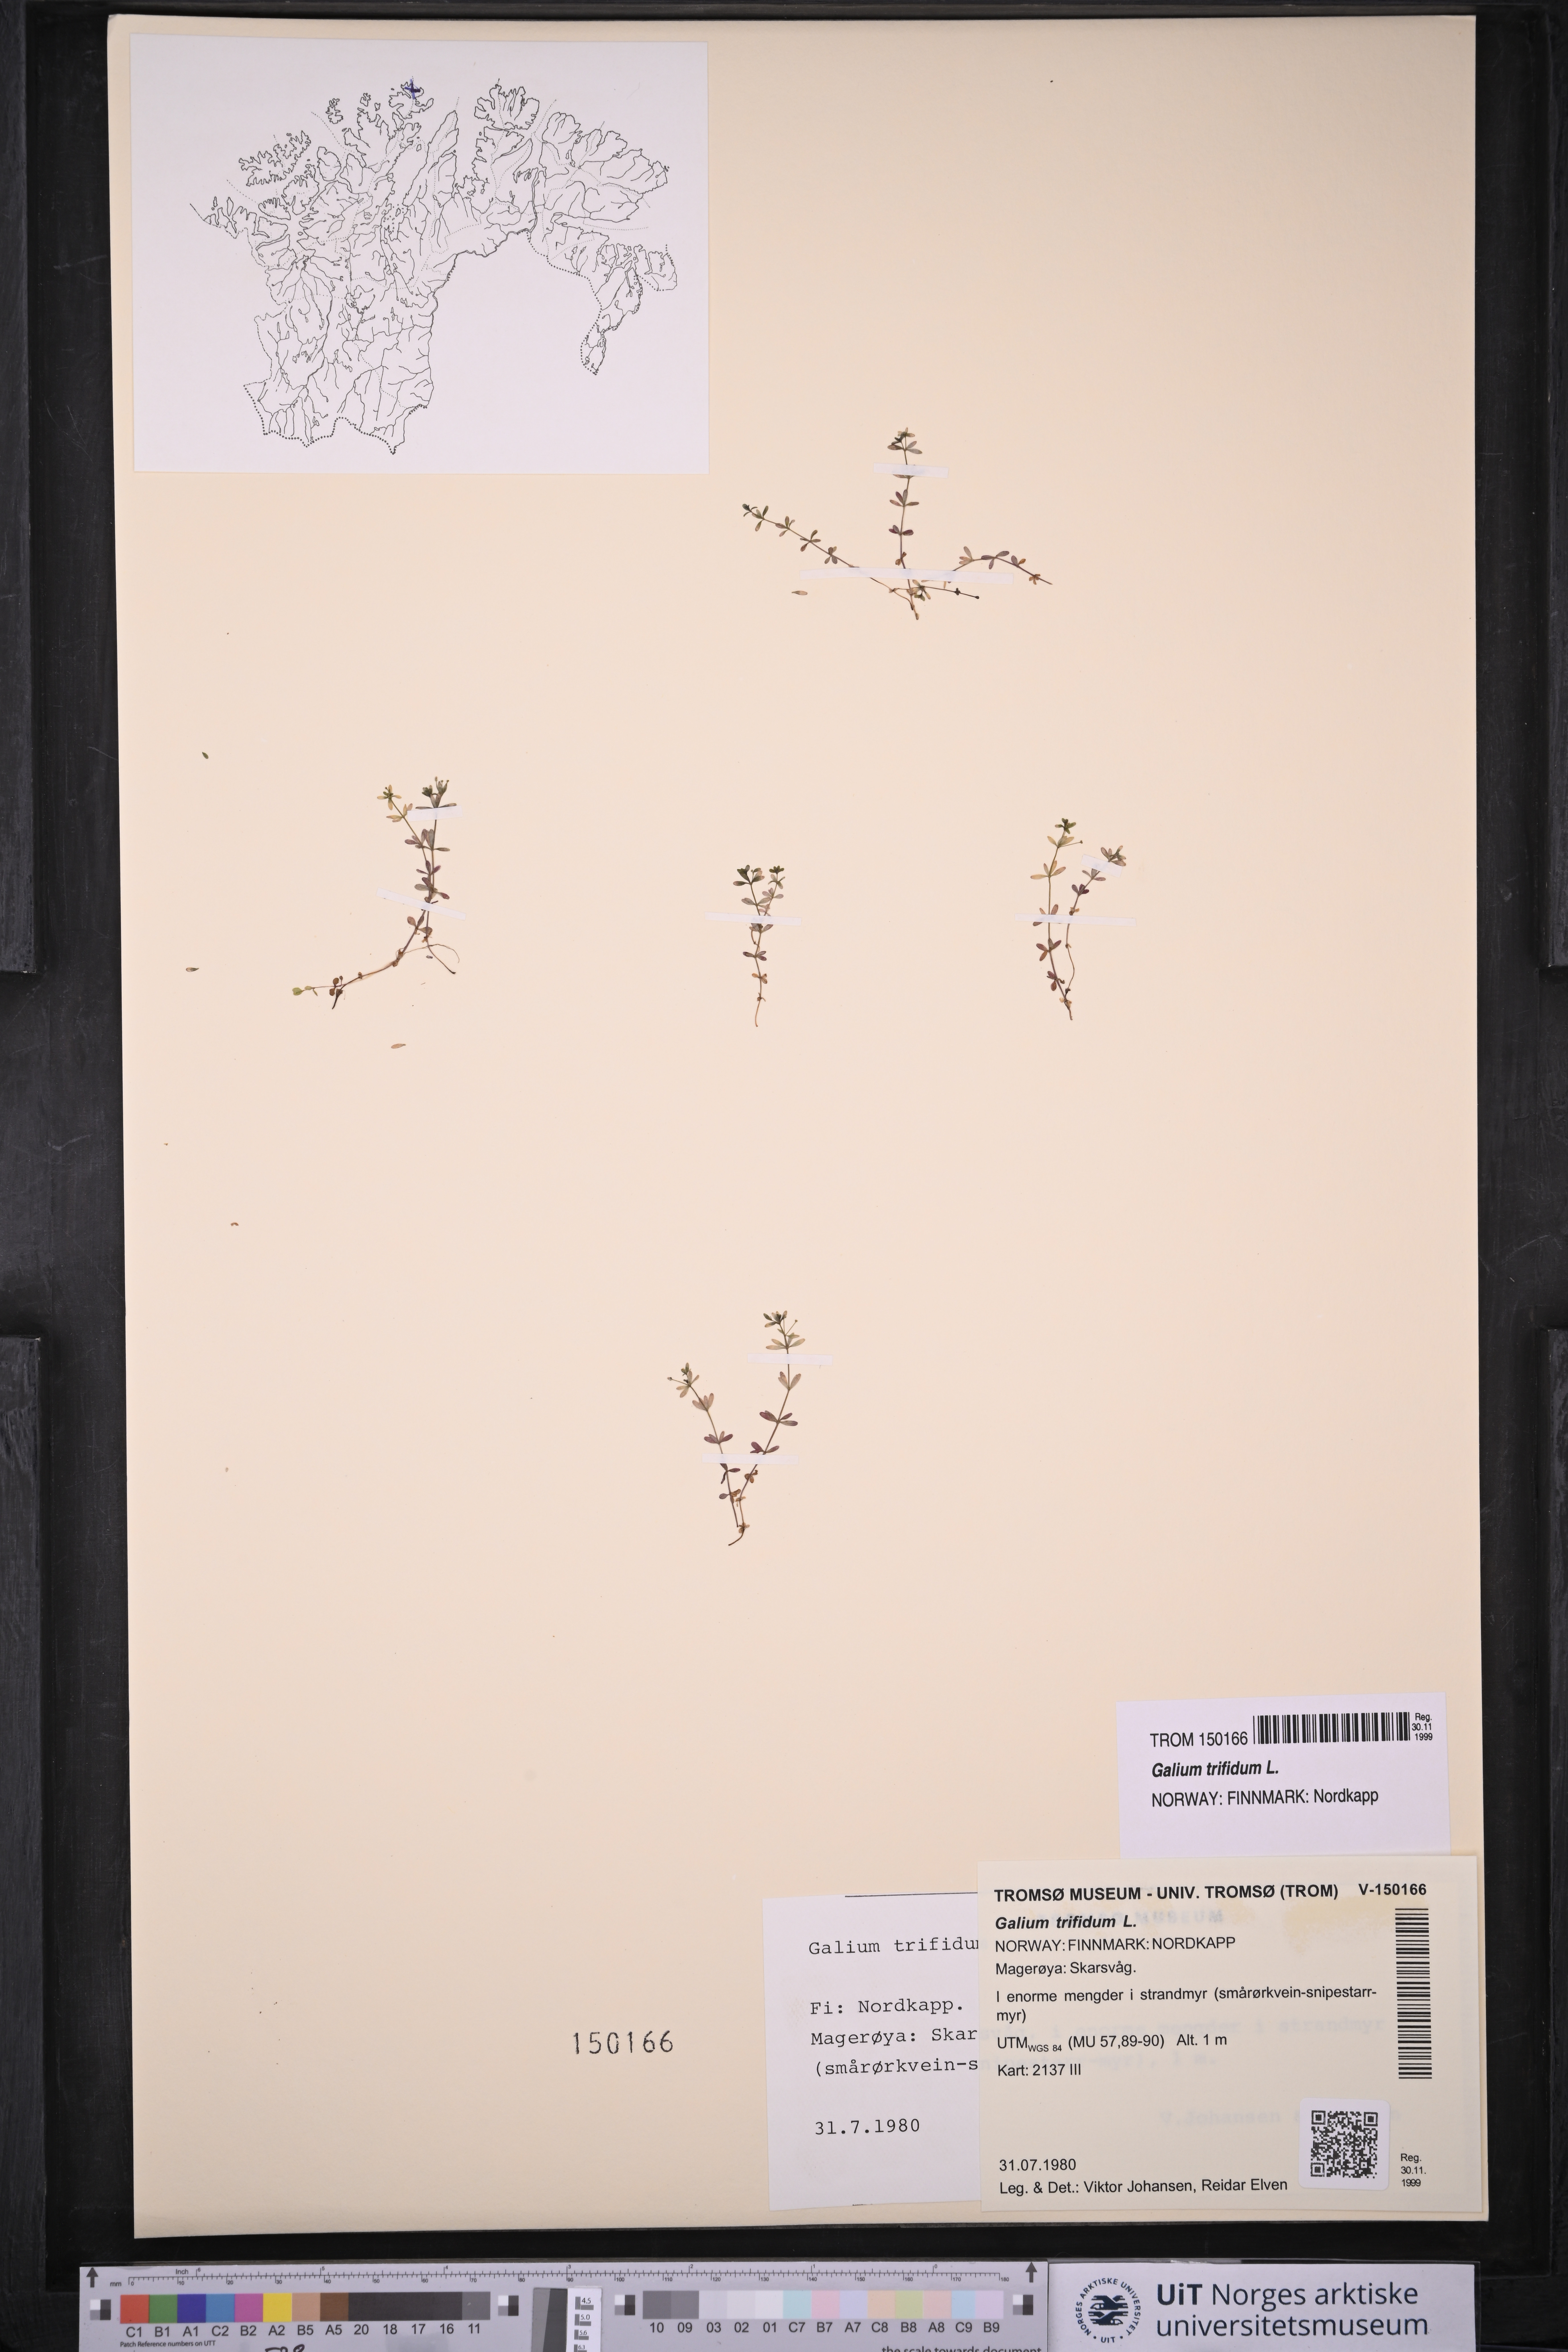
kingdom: Plantae
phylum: Tracheophyta
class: Magnoliopsida
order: Gentianales
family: Rubiaceae
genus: Galium
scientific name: Galium trifidum
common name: Small bedstraw
